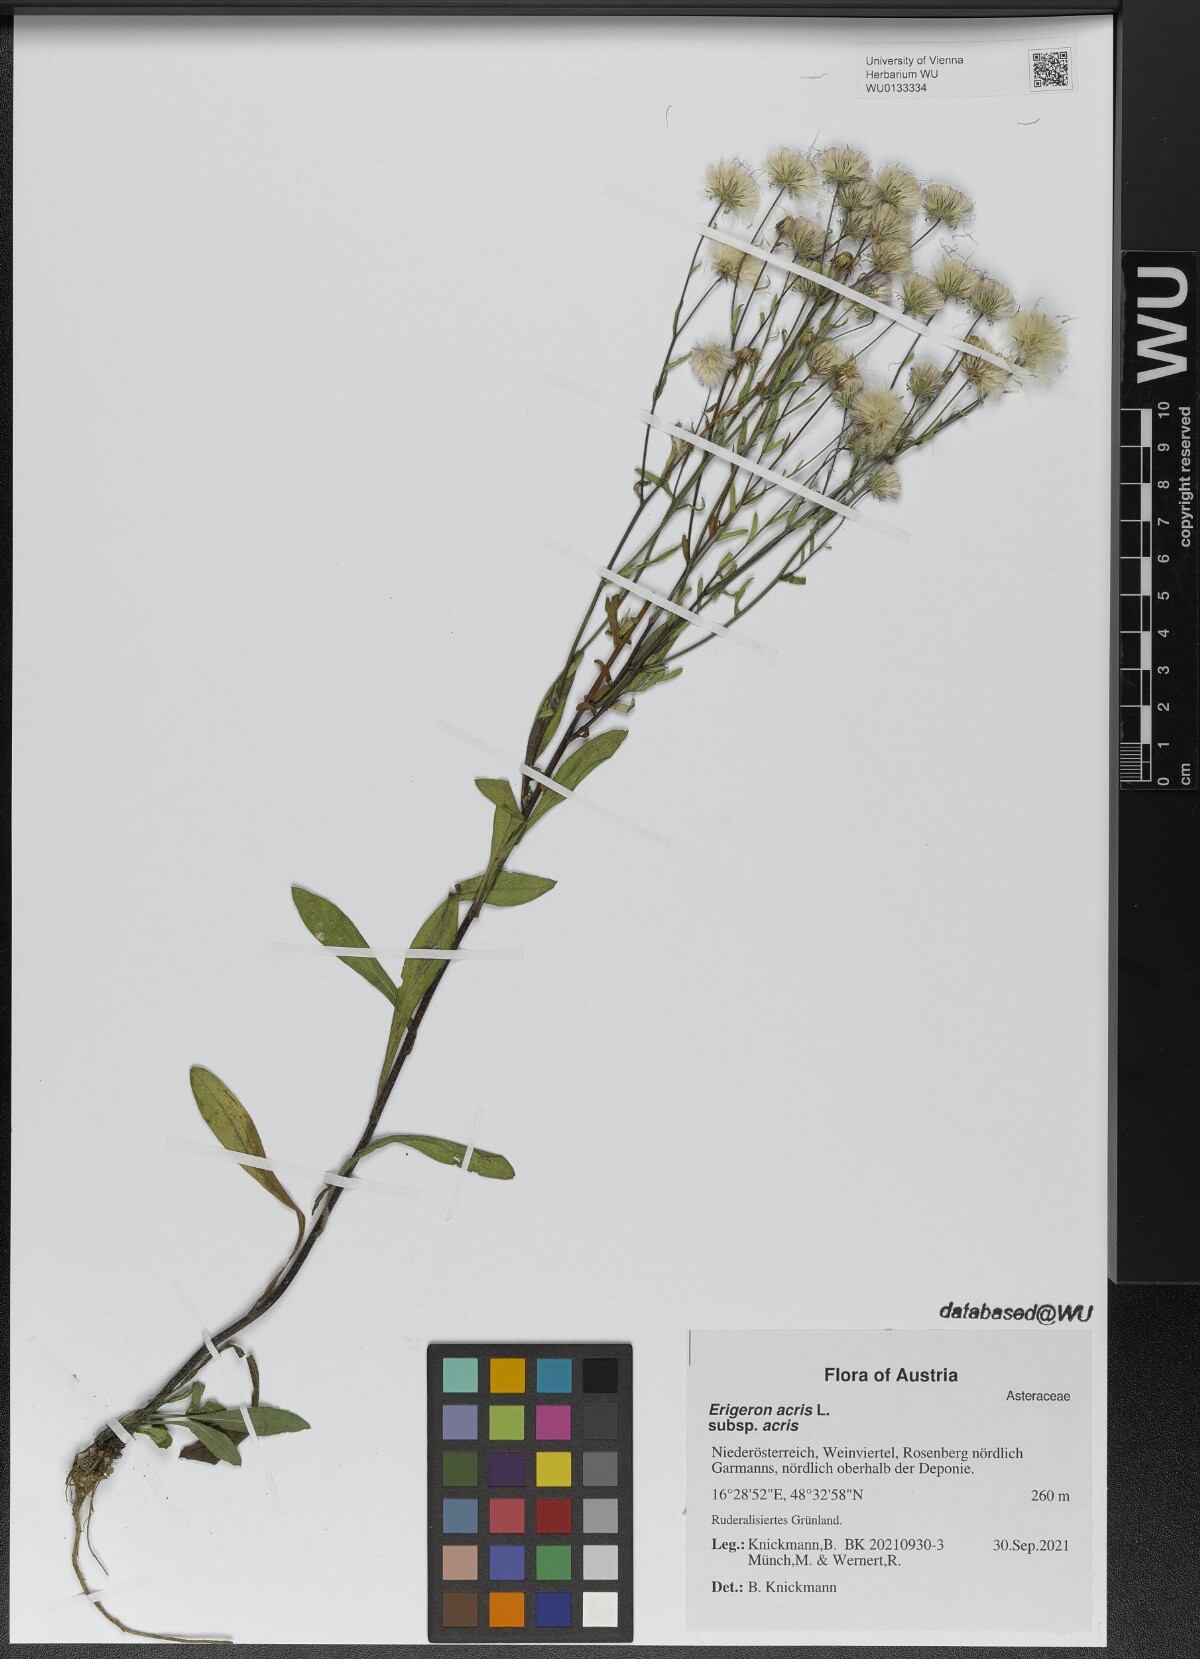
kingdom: Plantae
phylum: Tracheophyta
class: Magnoliopsida
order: Asterales
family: Asteraceae
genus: Erigeron
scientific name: Erigeron acris
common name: Blue fleabane
